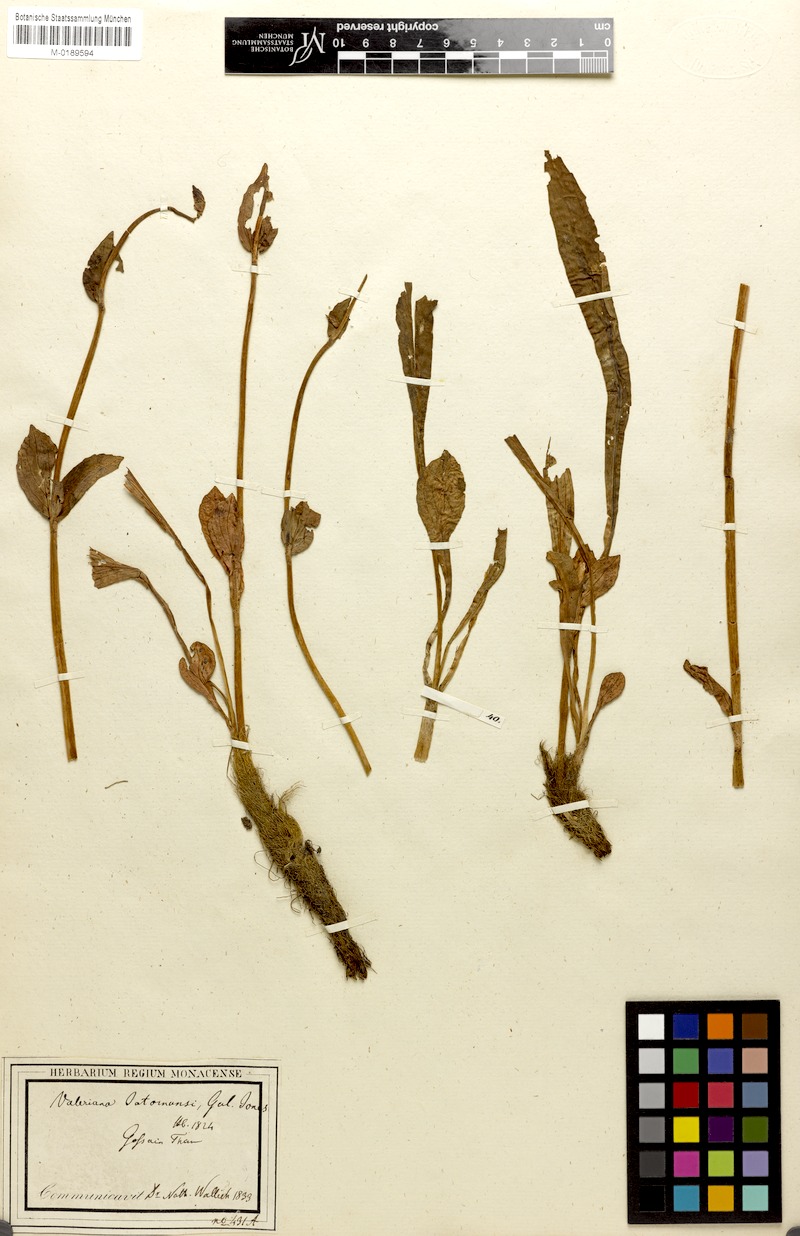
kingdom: Plantae
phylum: Tracheophyta
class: Magnoliopsida
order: Dipsacales
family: Caprifoliaceae
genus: Nardostachys
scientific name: Nardostachys jatamansi
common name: Indian nard
